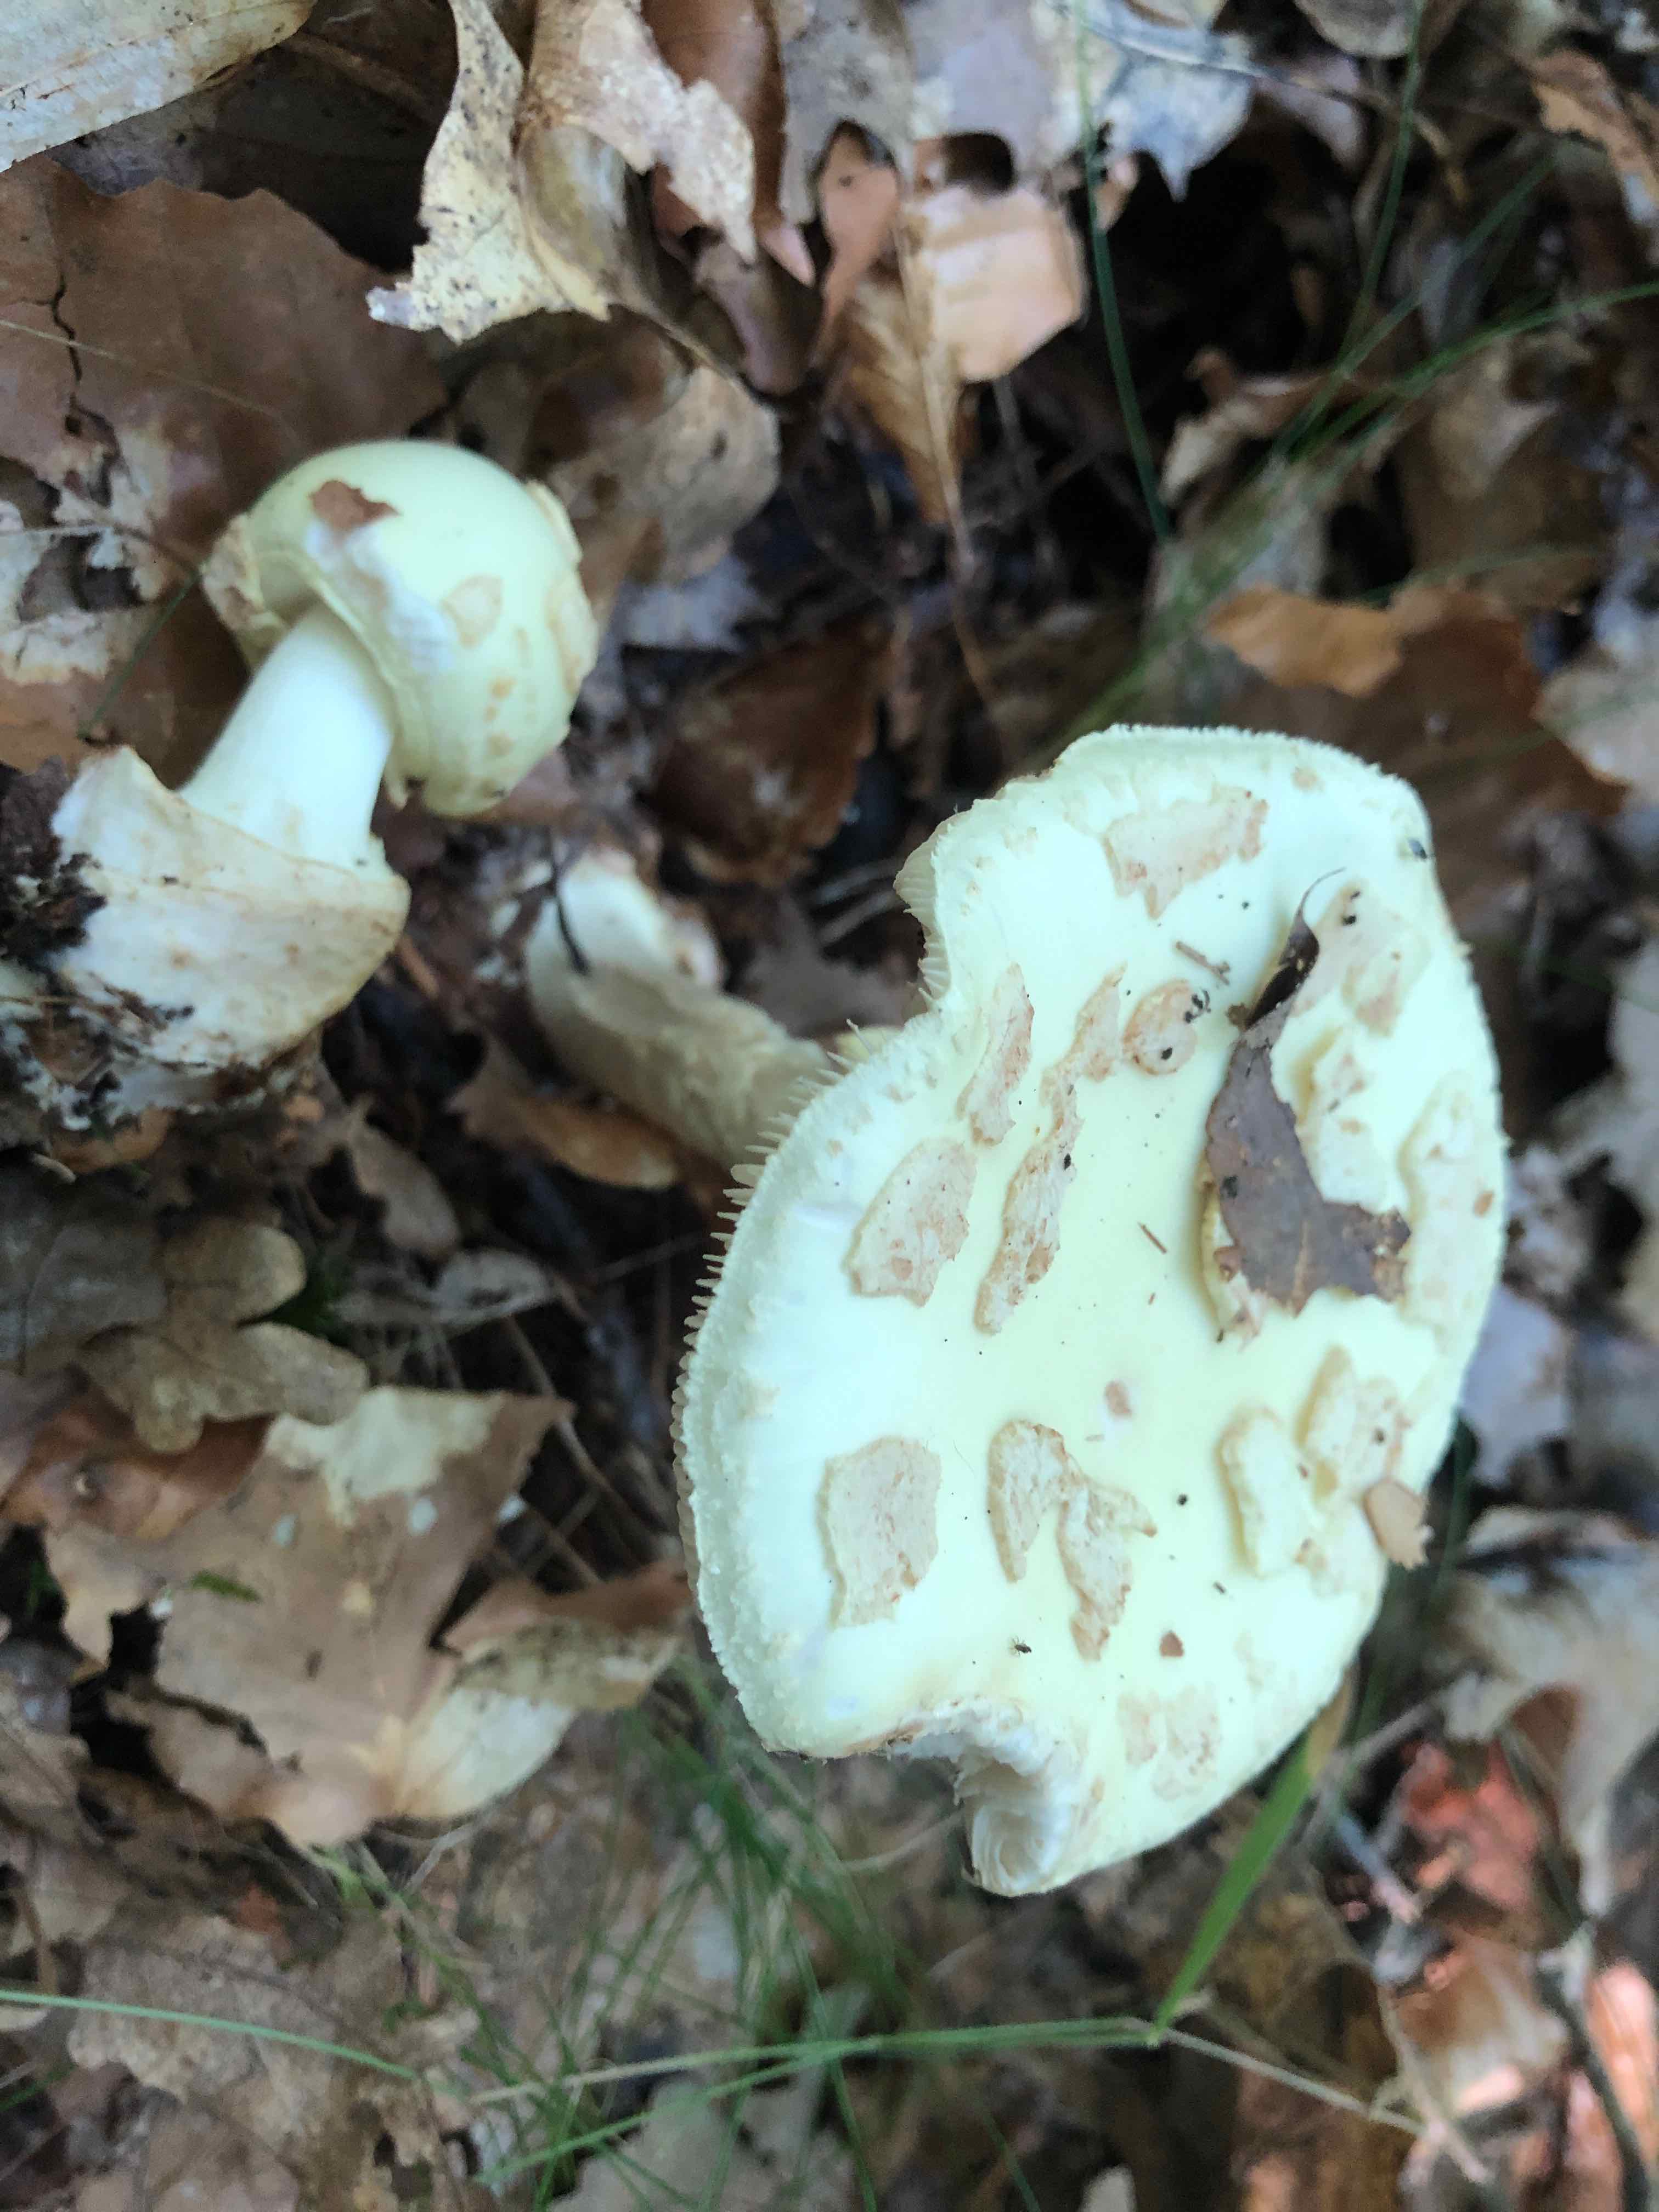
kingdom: Fungi
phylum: Basidiomycota
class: Agaricomycetes
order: Agaricales
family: Amanitaceae
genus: Amanita
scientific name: Amanita citrina
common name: kugleknoldet fluesvamp
